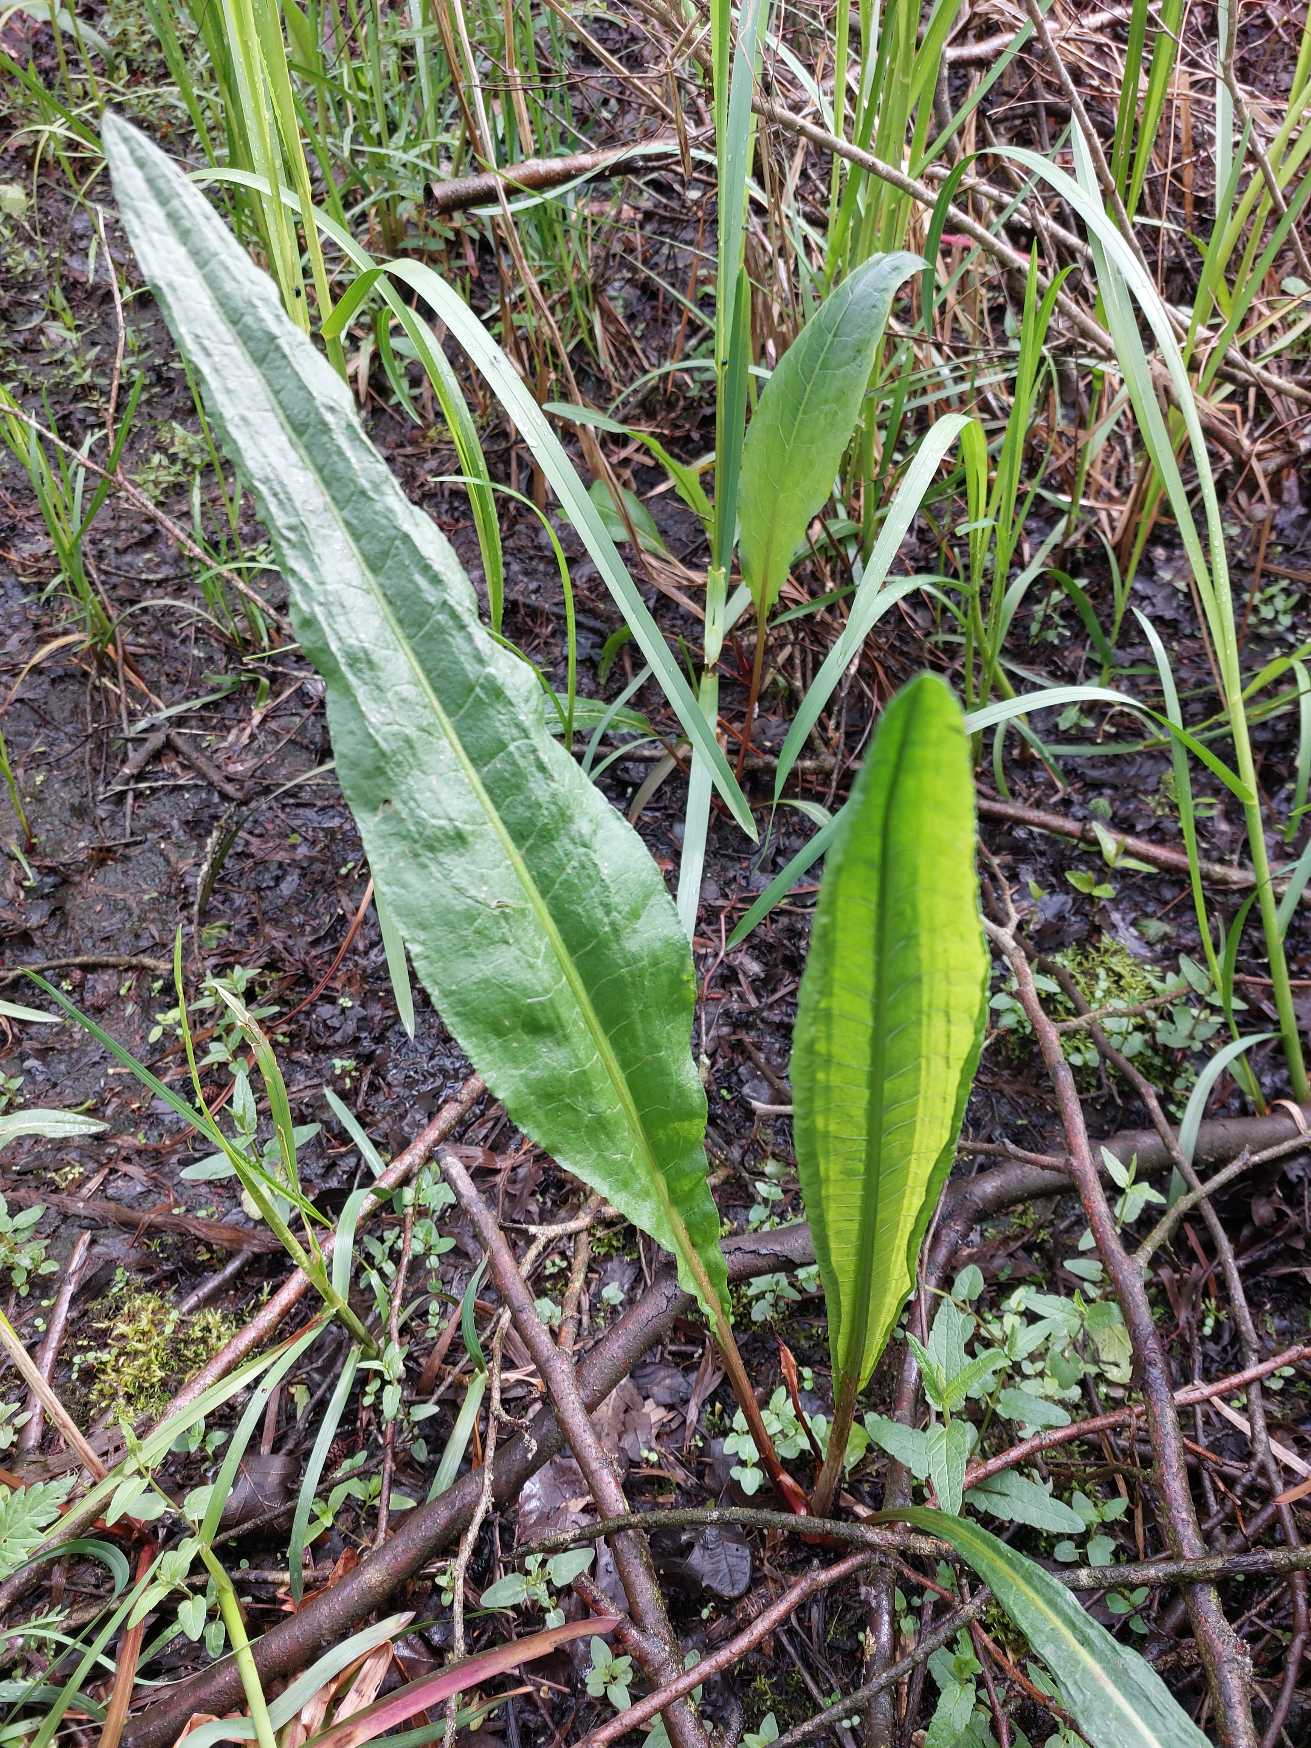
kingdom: Plantae
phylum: Tracheophyta
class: Magnoliopsida
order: Caryophyllales
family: Polygonaceae
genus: Rumex
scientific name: Rumex hydrolapathum
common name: Vand-skræppe
